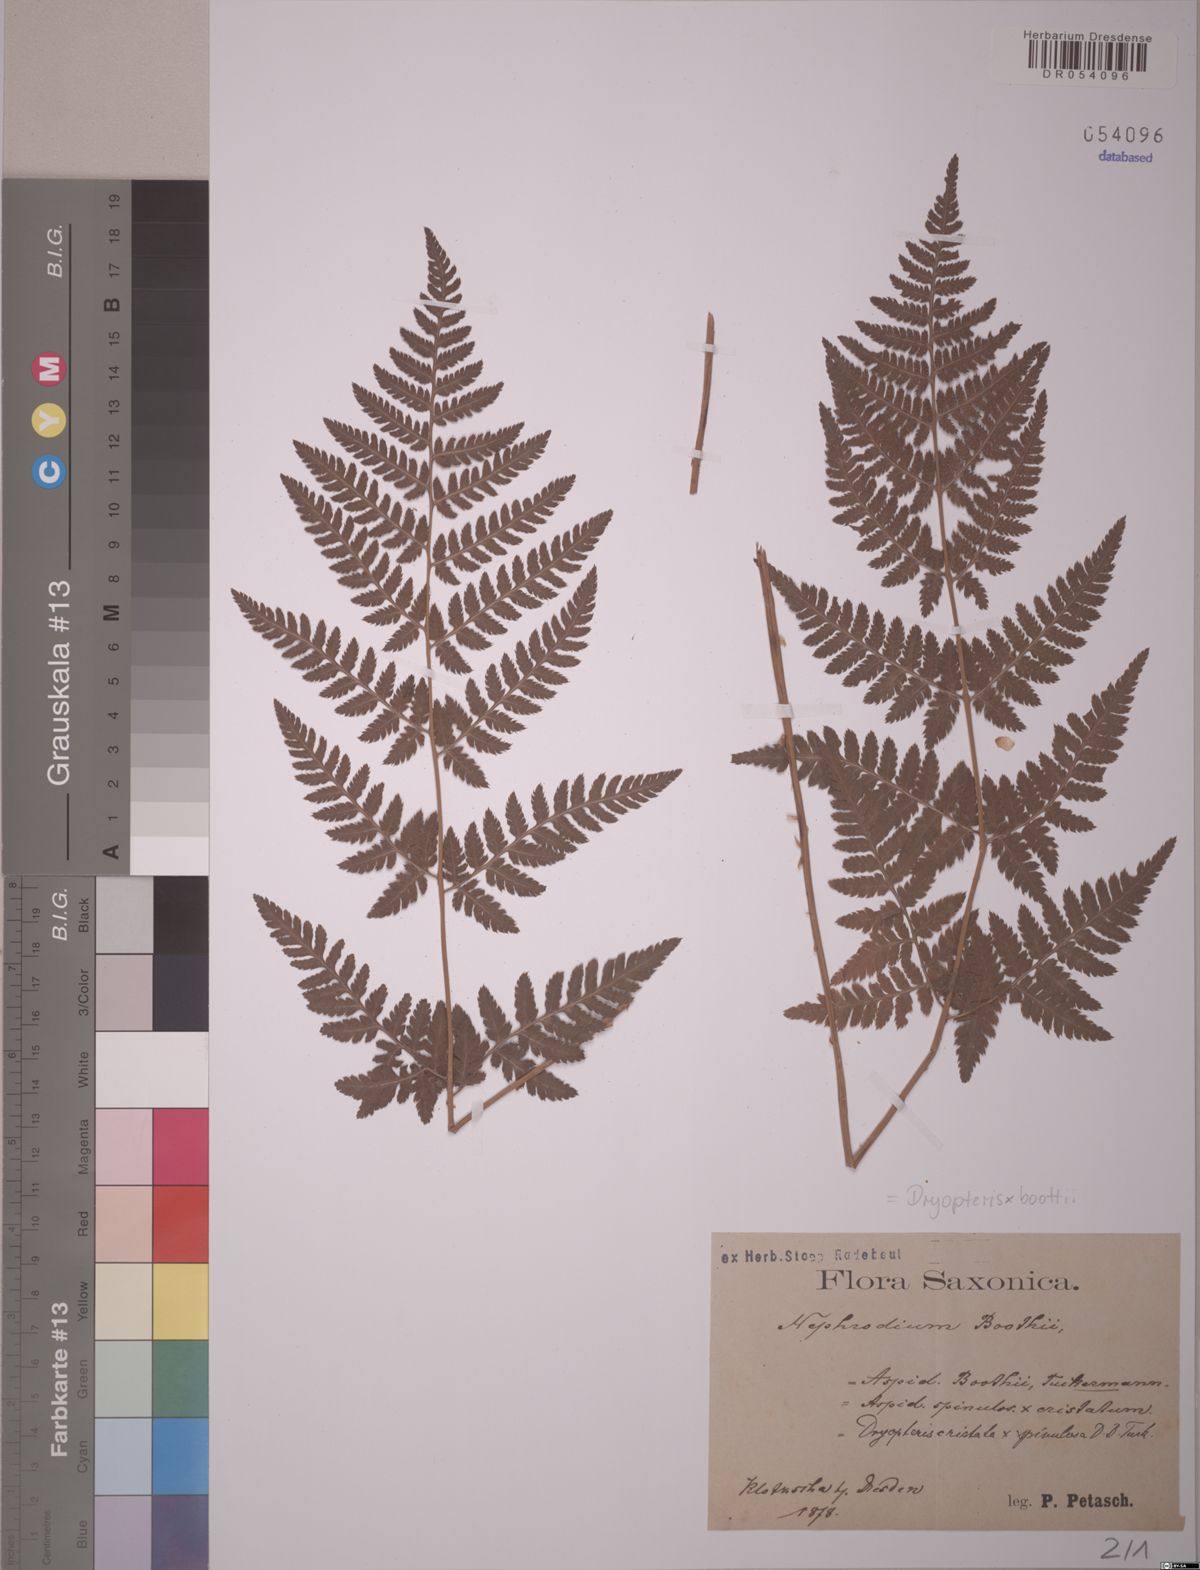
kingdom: Plantae
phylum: Tracheophyta
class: Polypodiopsida
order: Polypodiales
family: Dryopteridaceae
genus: Dryopteris
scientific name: Dryopteris boottii
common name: Boott's fern
